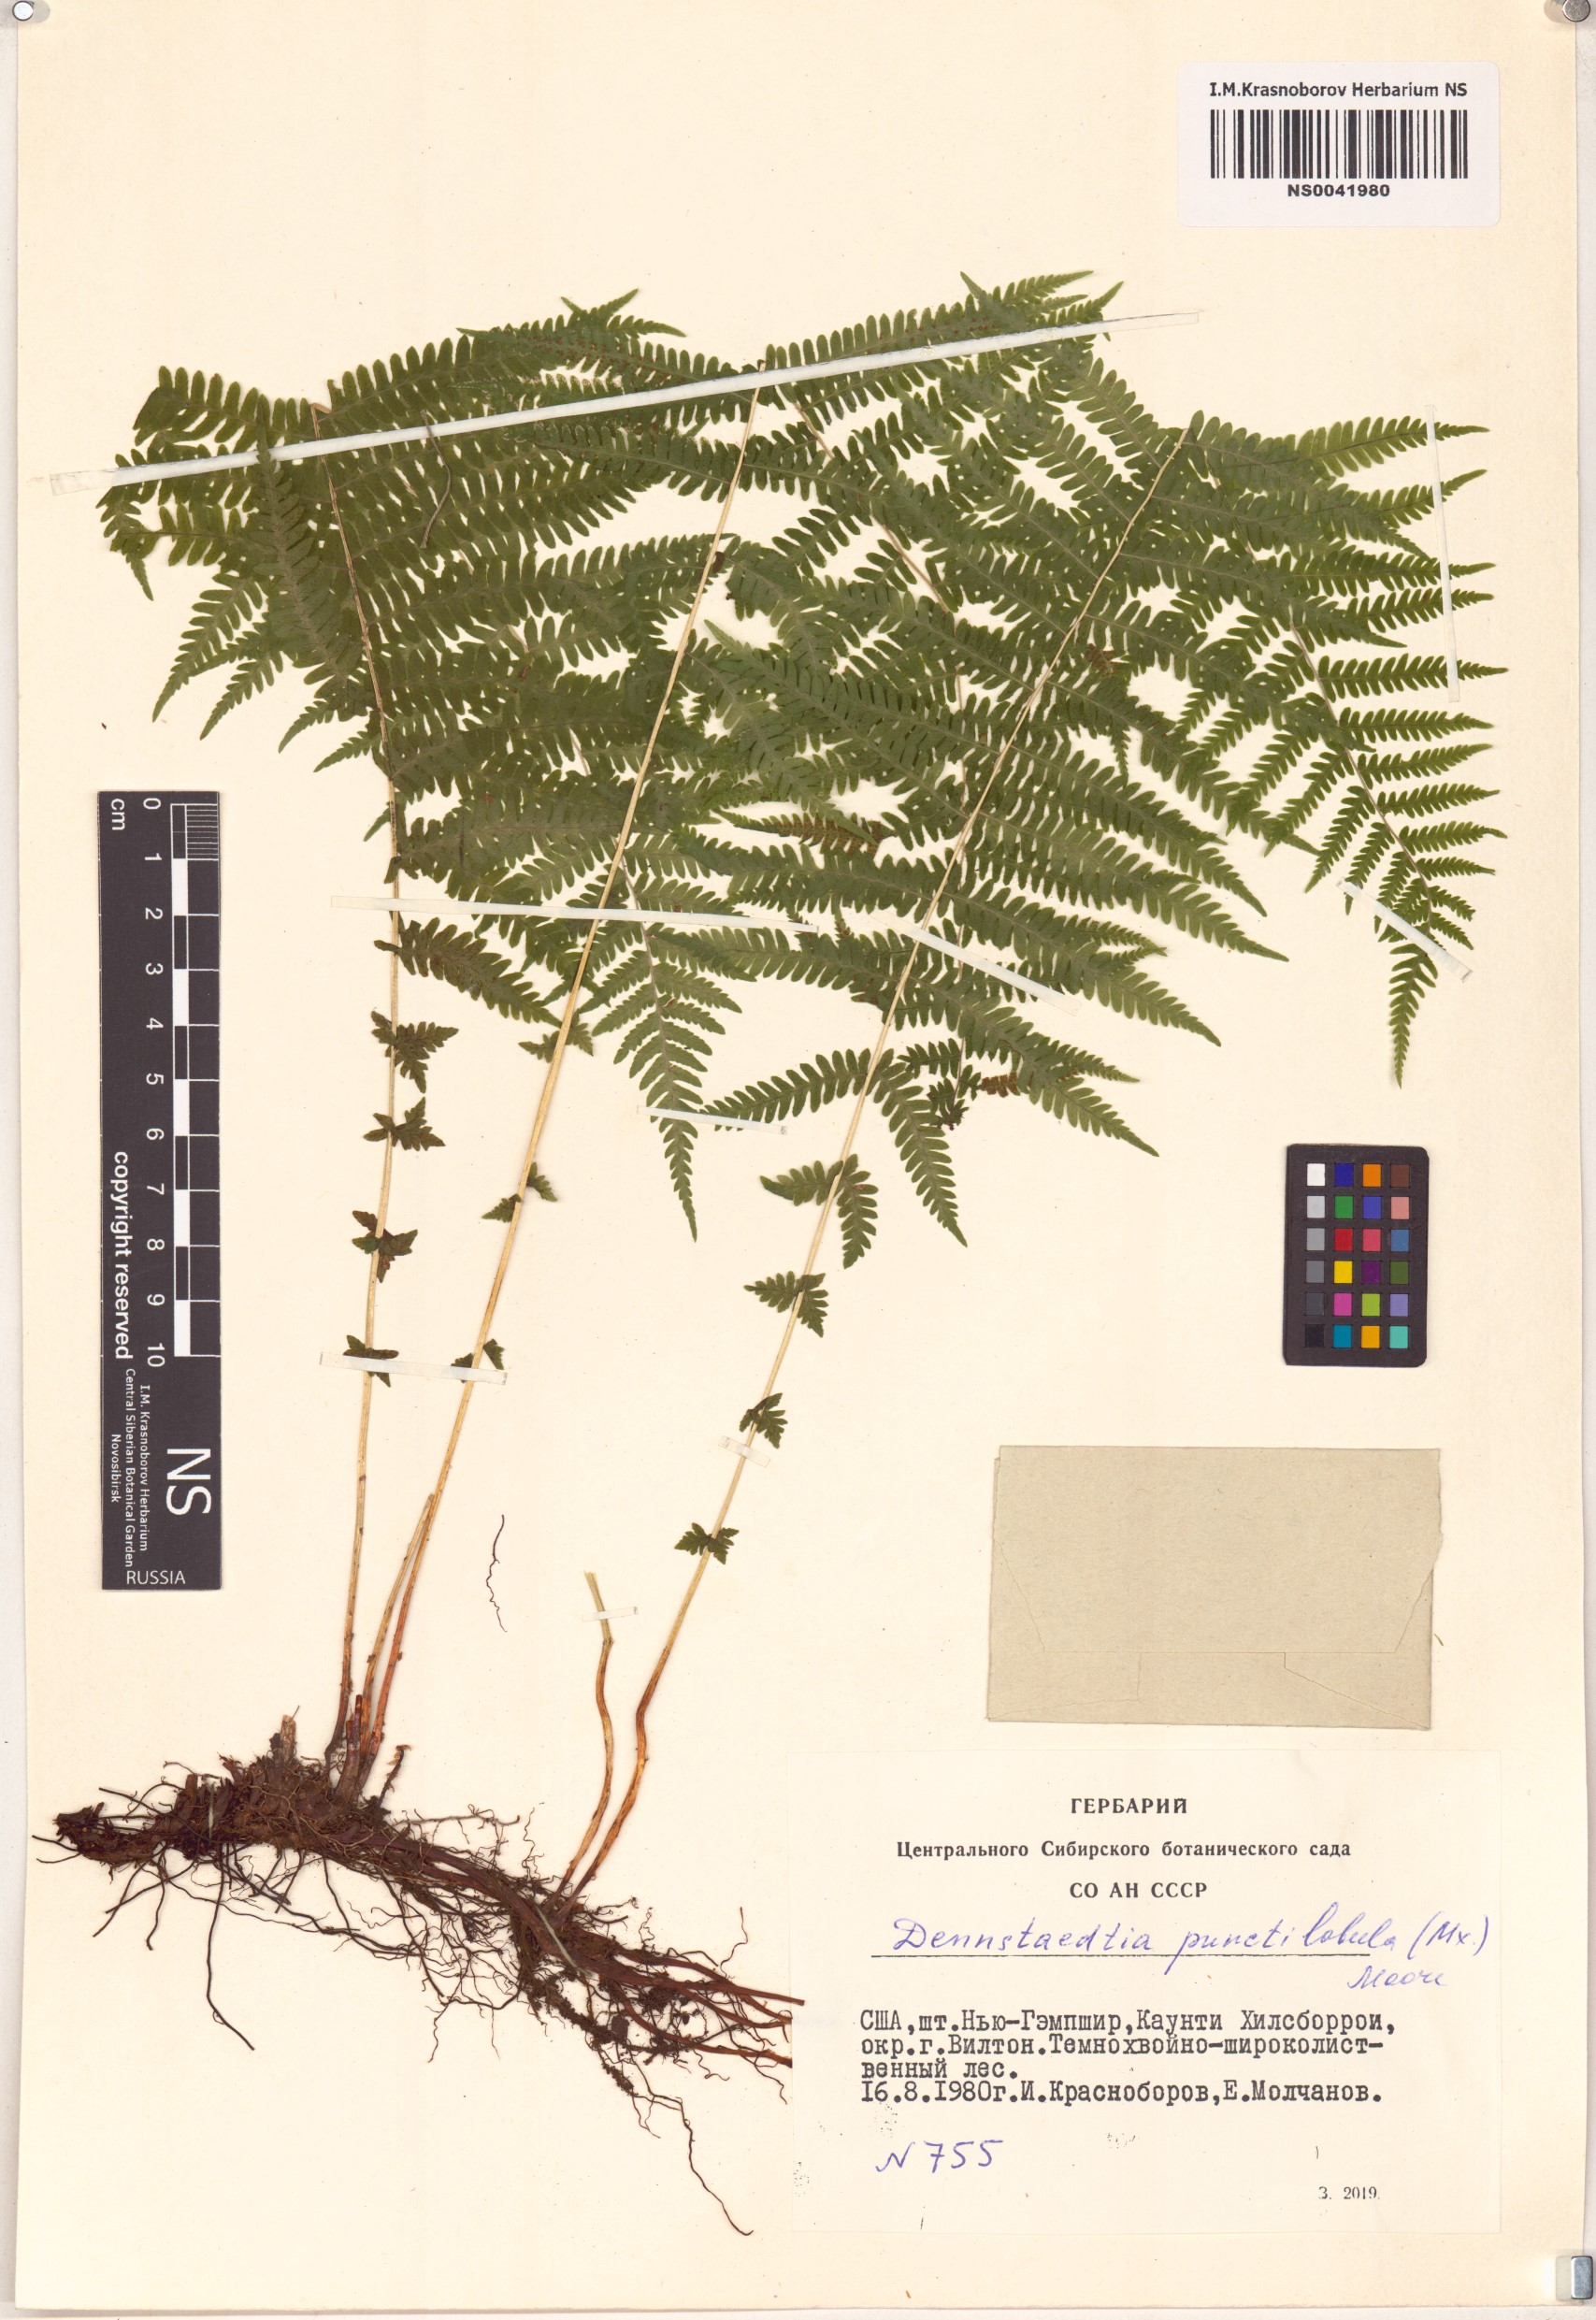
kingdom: Plantae
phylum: Tracheophyta
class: Polypodiopsida
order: Polypodiales
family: Dennstaedtiaceae
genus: Sitobolium
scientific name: Sitobolium punctilobum
